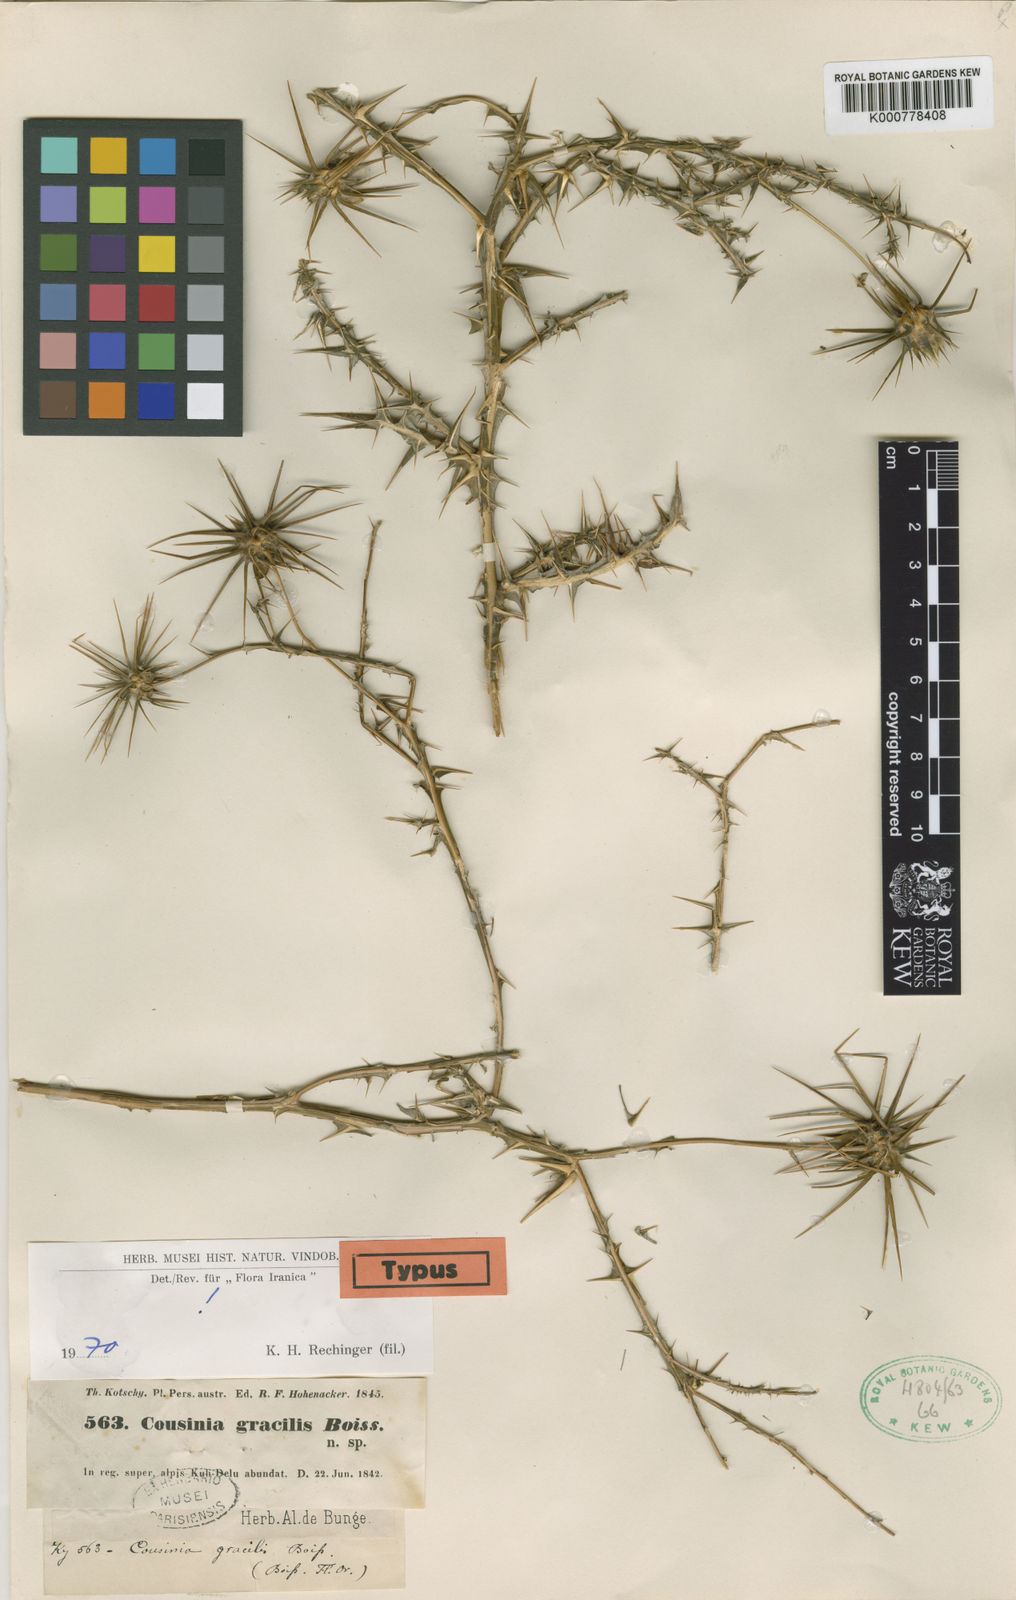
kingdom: Plantae
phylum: Tracheophyta
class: Magnoliopsida
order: Asterales
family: Asteraceae
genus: Cousinia
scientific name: Cousinia gracilis
